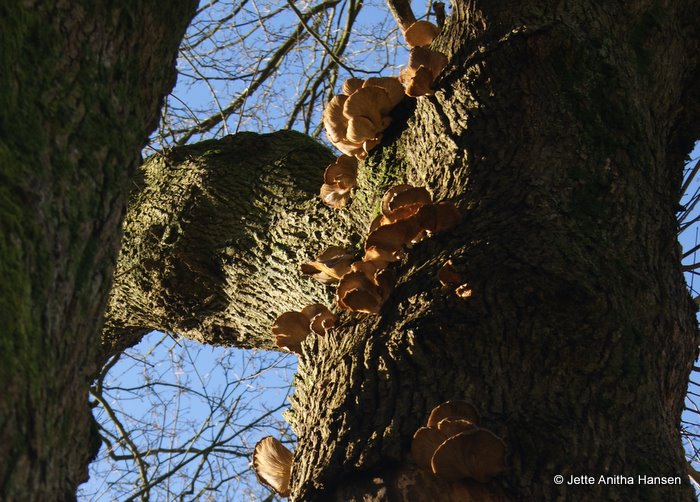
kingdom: Fungi
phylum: Basidiomycota
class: Agaricomycetes
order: Agaricales
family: Pleurotaceae
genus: Pleurotus
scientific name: Pleurotus ostreatus
